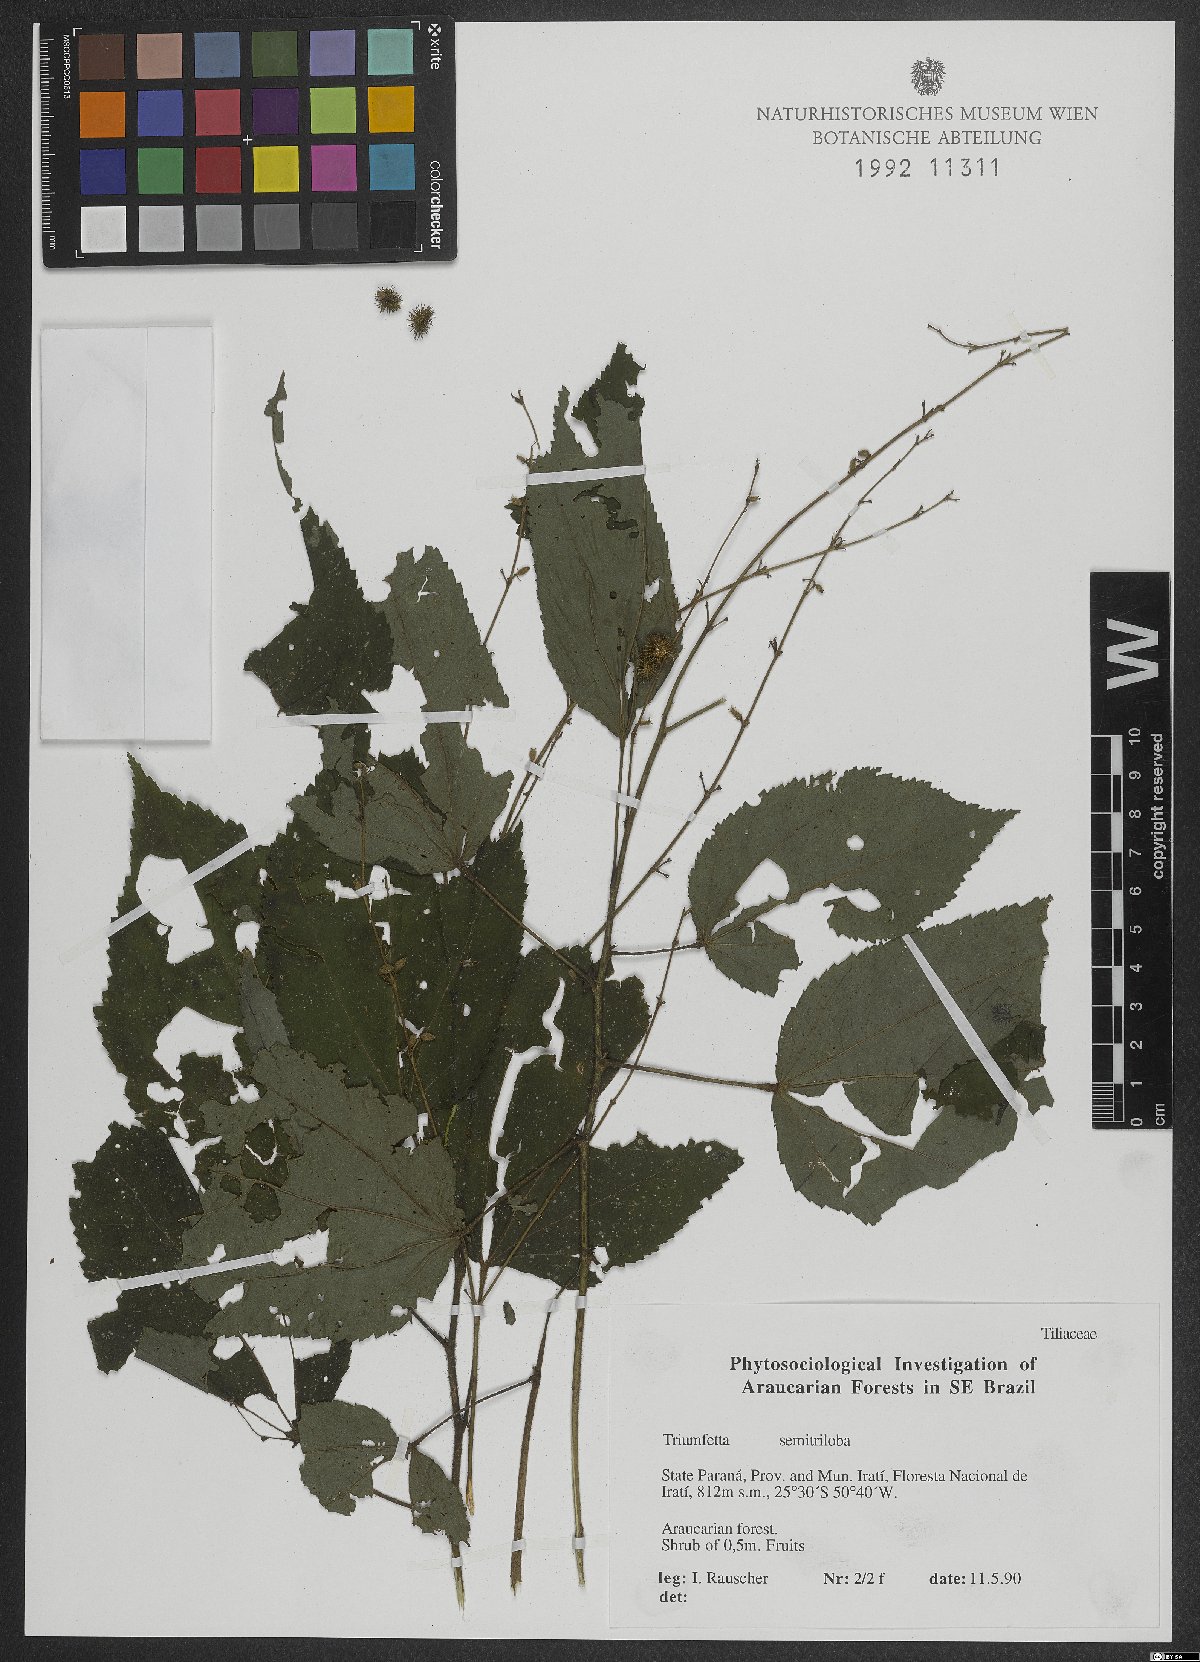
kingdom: Plantae
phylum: Tracheophyta
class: Magnoliopsida
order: Malvales
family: Malvaceae
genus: Triumfetta
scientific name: Triumfetta semitriloba
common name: Sacramento burbark
